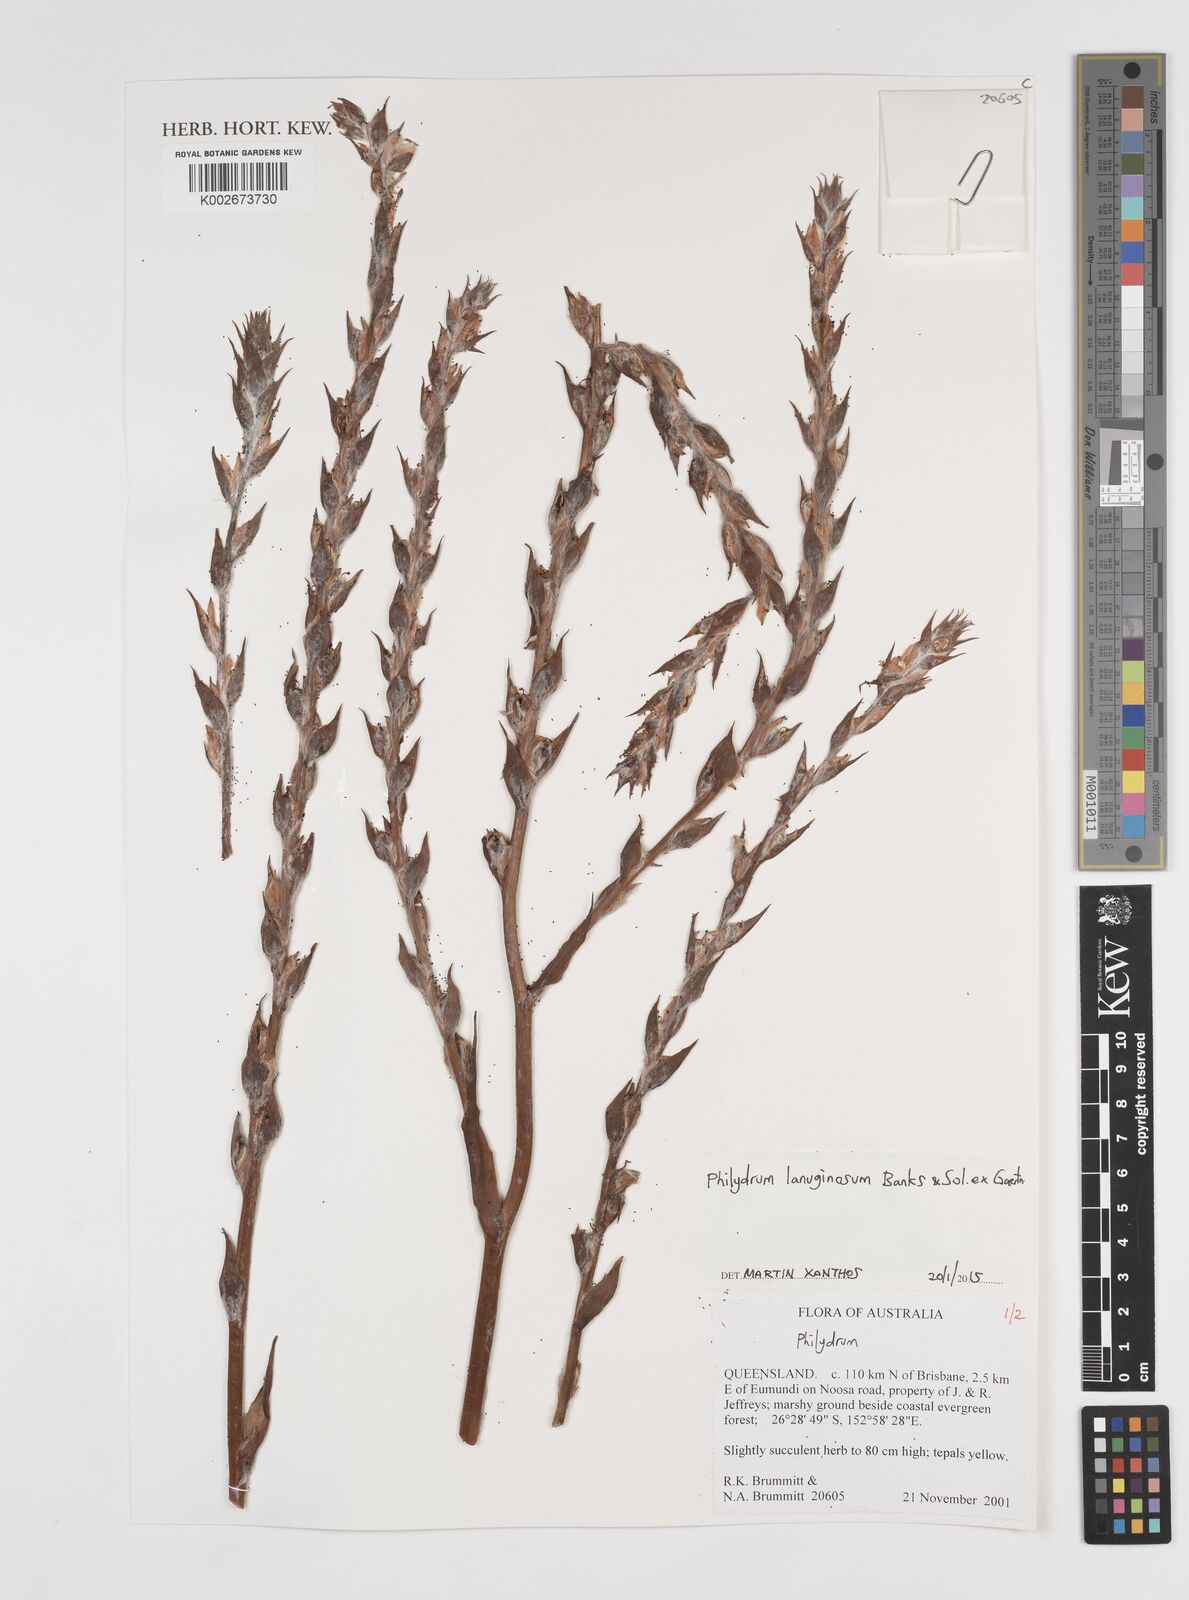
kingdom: Plantae
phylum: Tracheophyta
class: Liliopsida
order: Commelinales
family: Philydraceae
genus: Philydrum
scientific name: Philydrum lanuginosum
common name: Woolly frog's mouth
